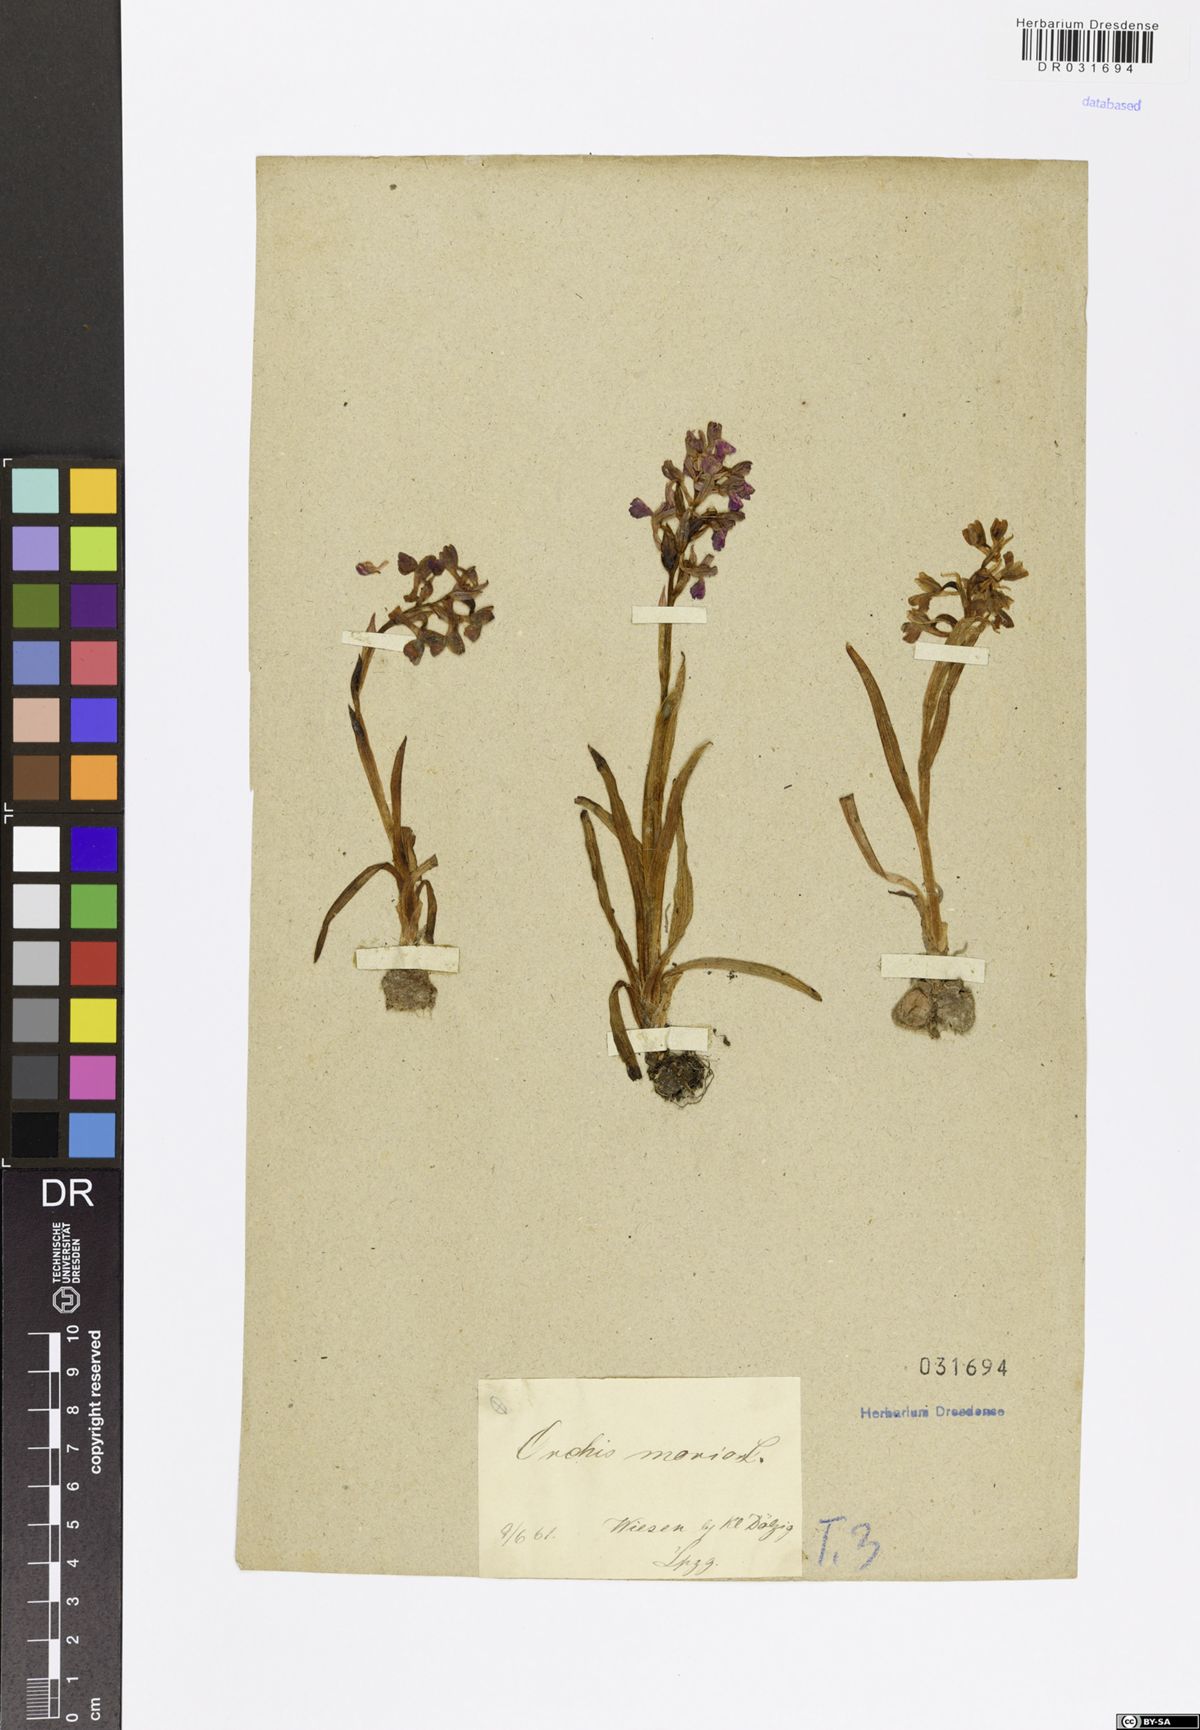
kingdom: Plantae
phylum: Tracheophyta
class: Liliopsida
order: Asparagales
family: Orchidaceae
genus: Anacamptis
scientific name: Anacamptis morio
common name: Green-winged orchid
